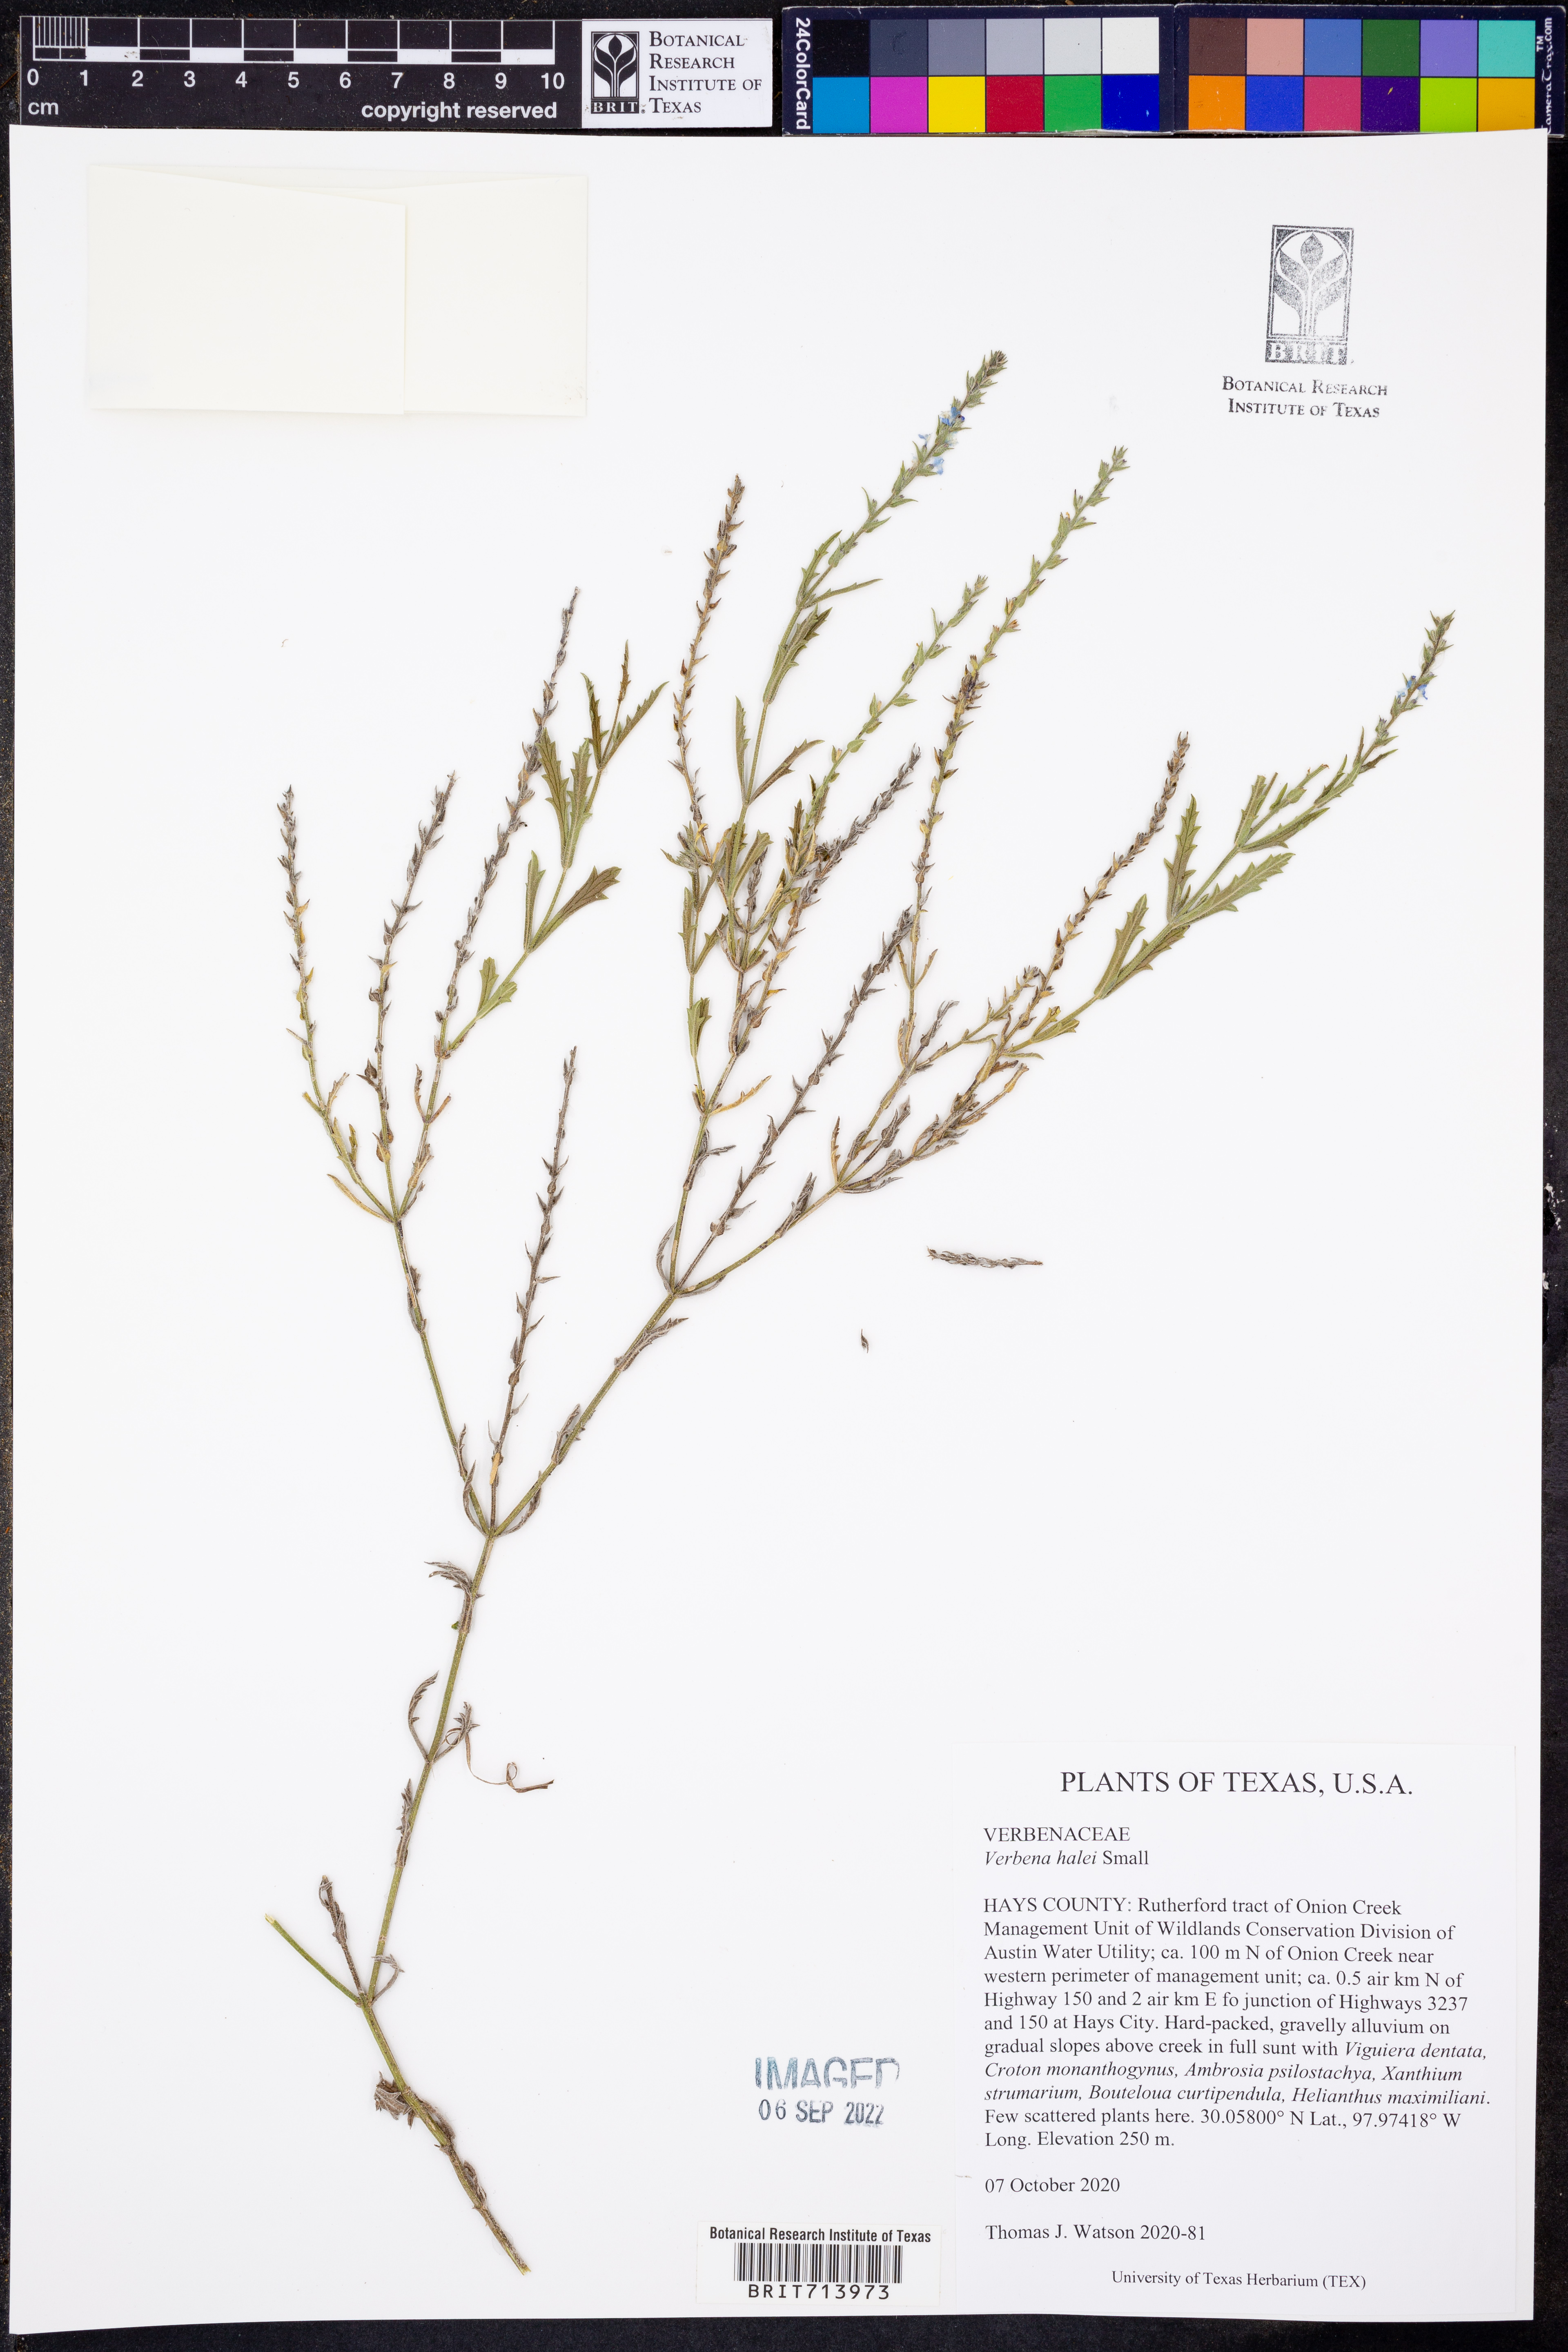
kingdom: Plantae
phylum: Tracheophyta
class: Magnoliopsida
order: Lamiales
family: Verbenaceae
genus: Verbena
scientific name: Verbena halei
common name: Texas vervain
